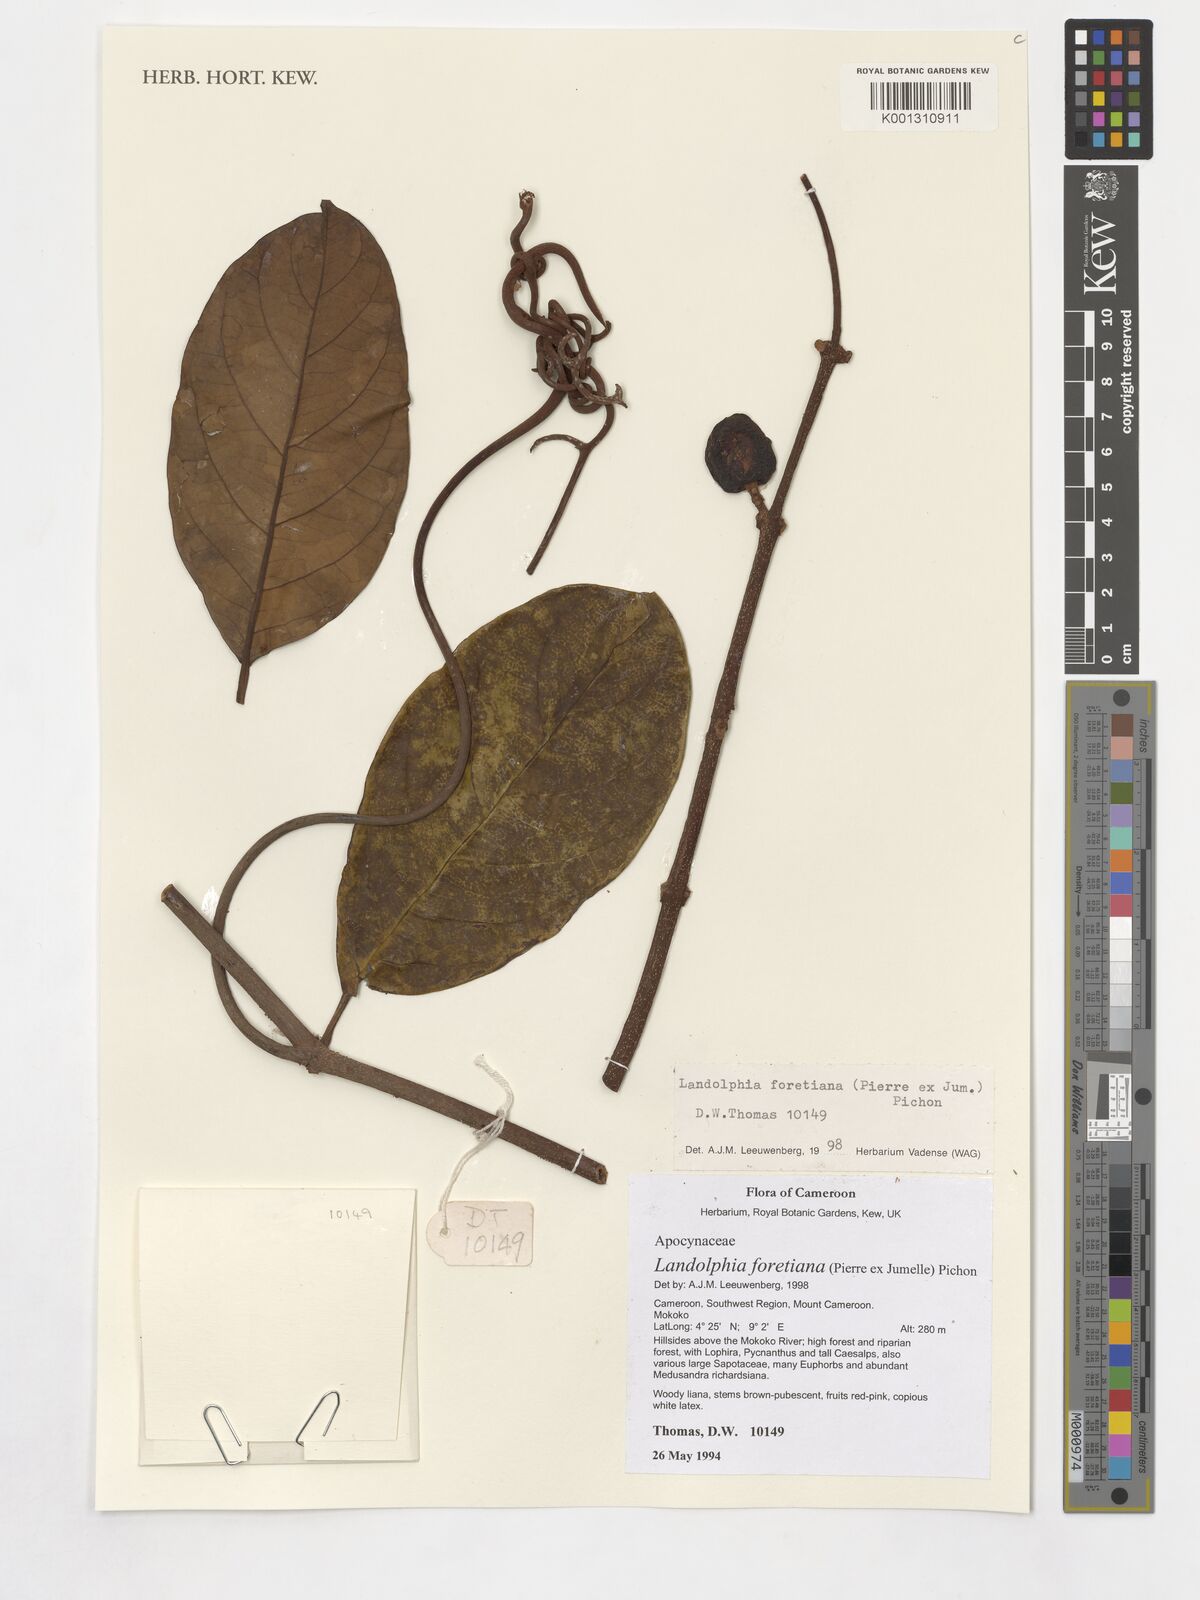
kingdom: Plantae
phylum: Tracheophyta
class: Magnoliopsida
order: Gentianales
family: Apocynaceae
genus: Landolphia
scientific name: Landolphia foretiana
